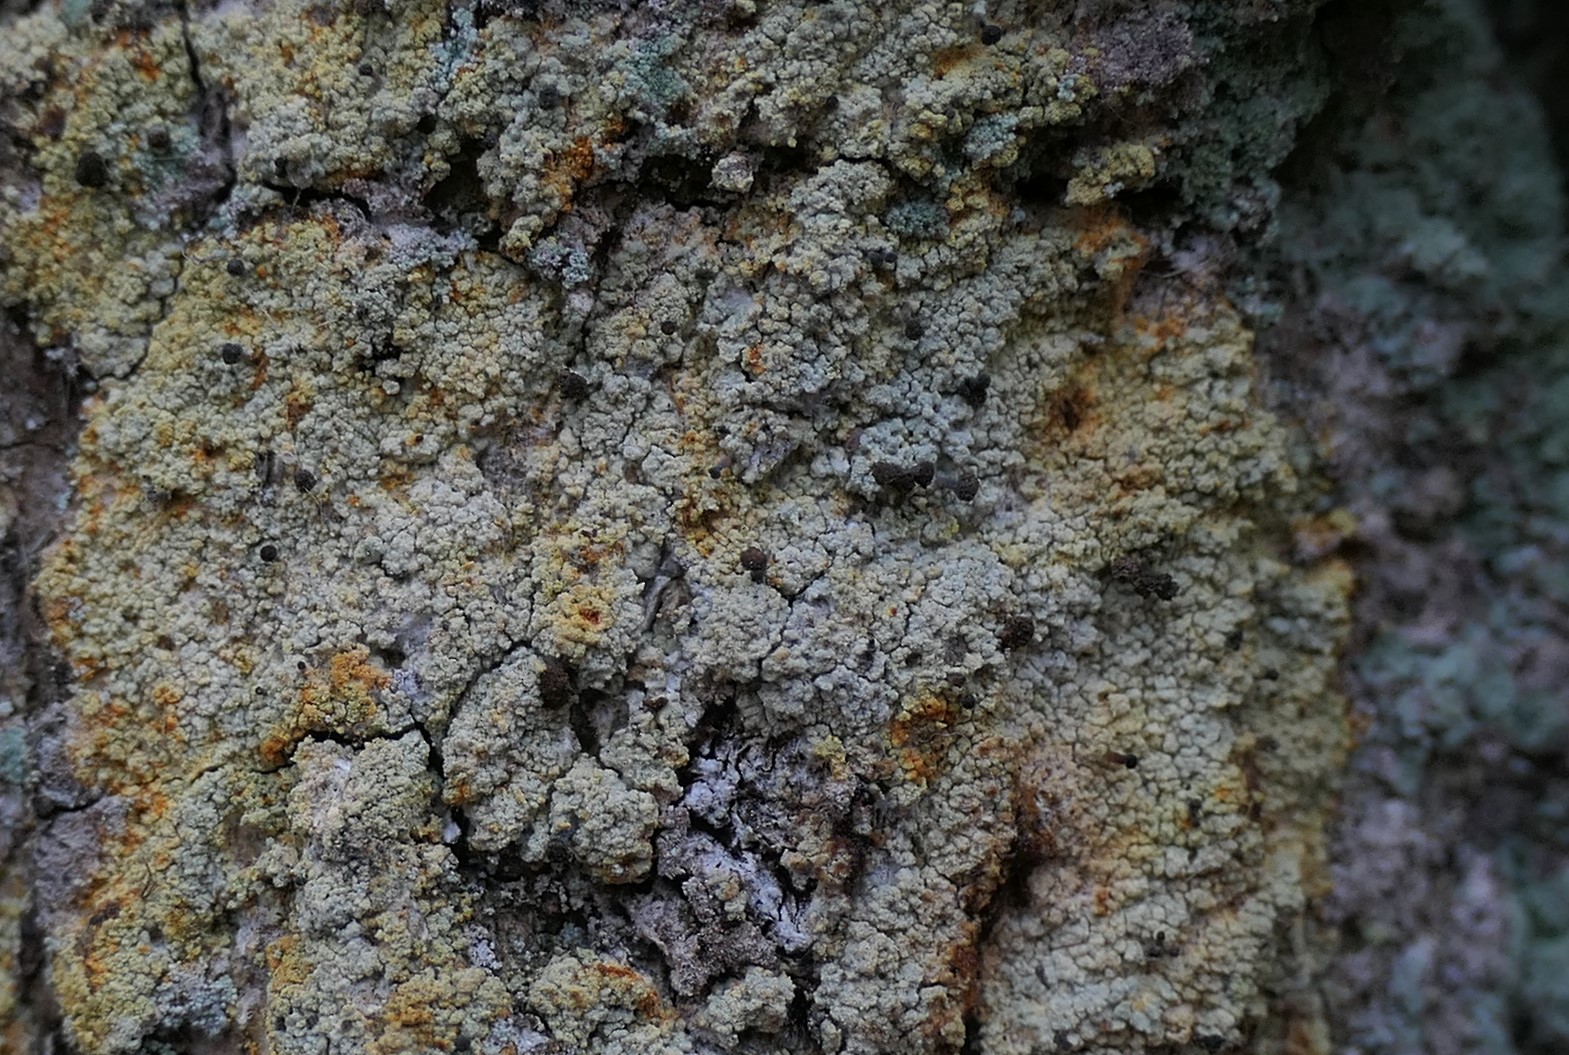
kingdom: Fungi
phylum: Ascomycota
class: Coniocybomycetes
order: Coniocybales
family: Coniocybaceae
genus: Chaenotheca
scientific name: Chaenotheca ferruginea
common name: rustbrun knappenålslav
